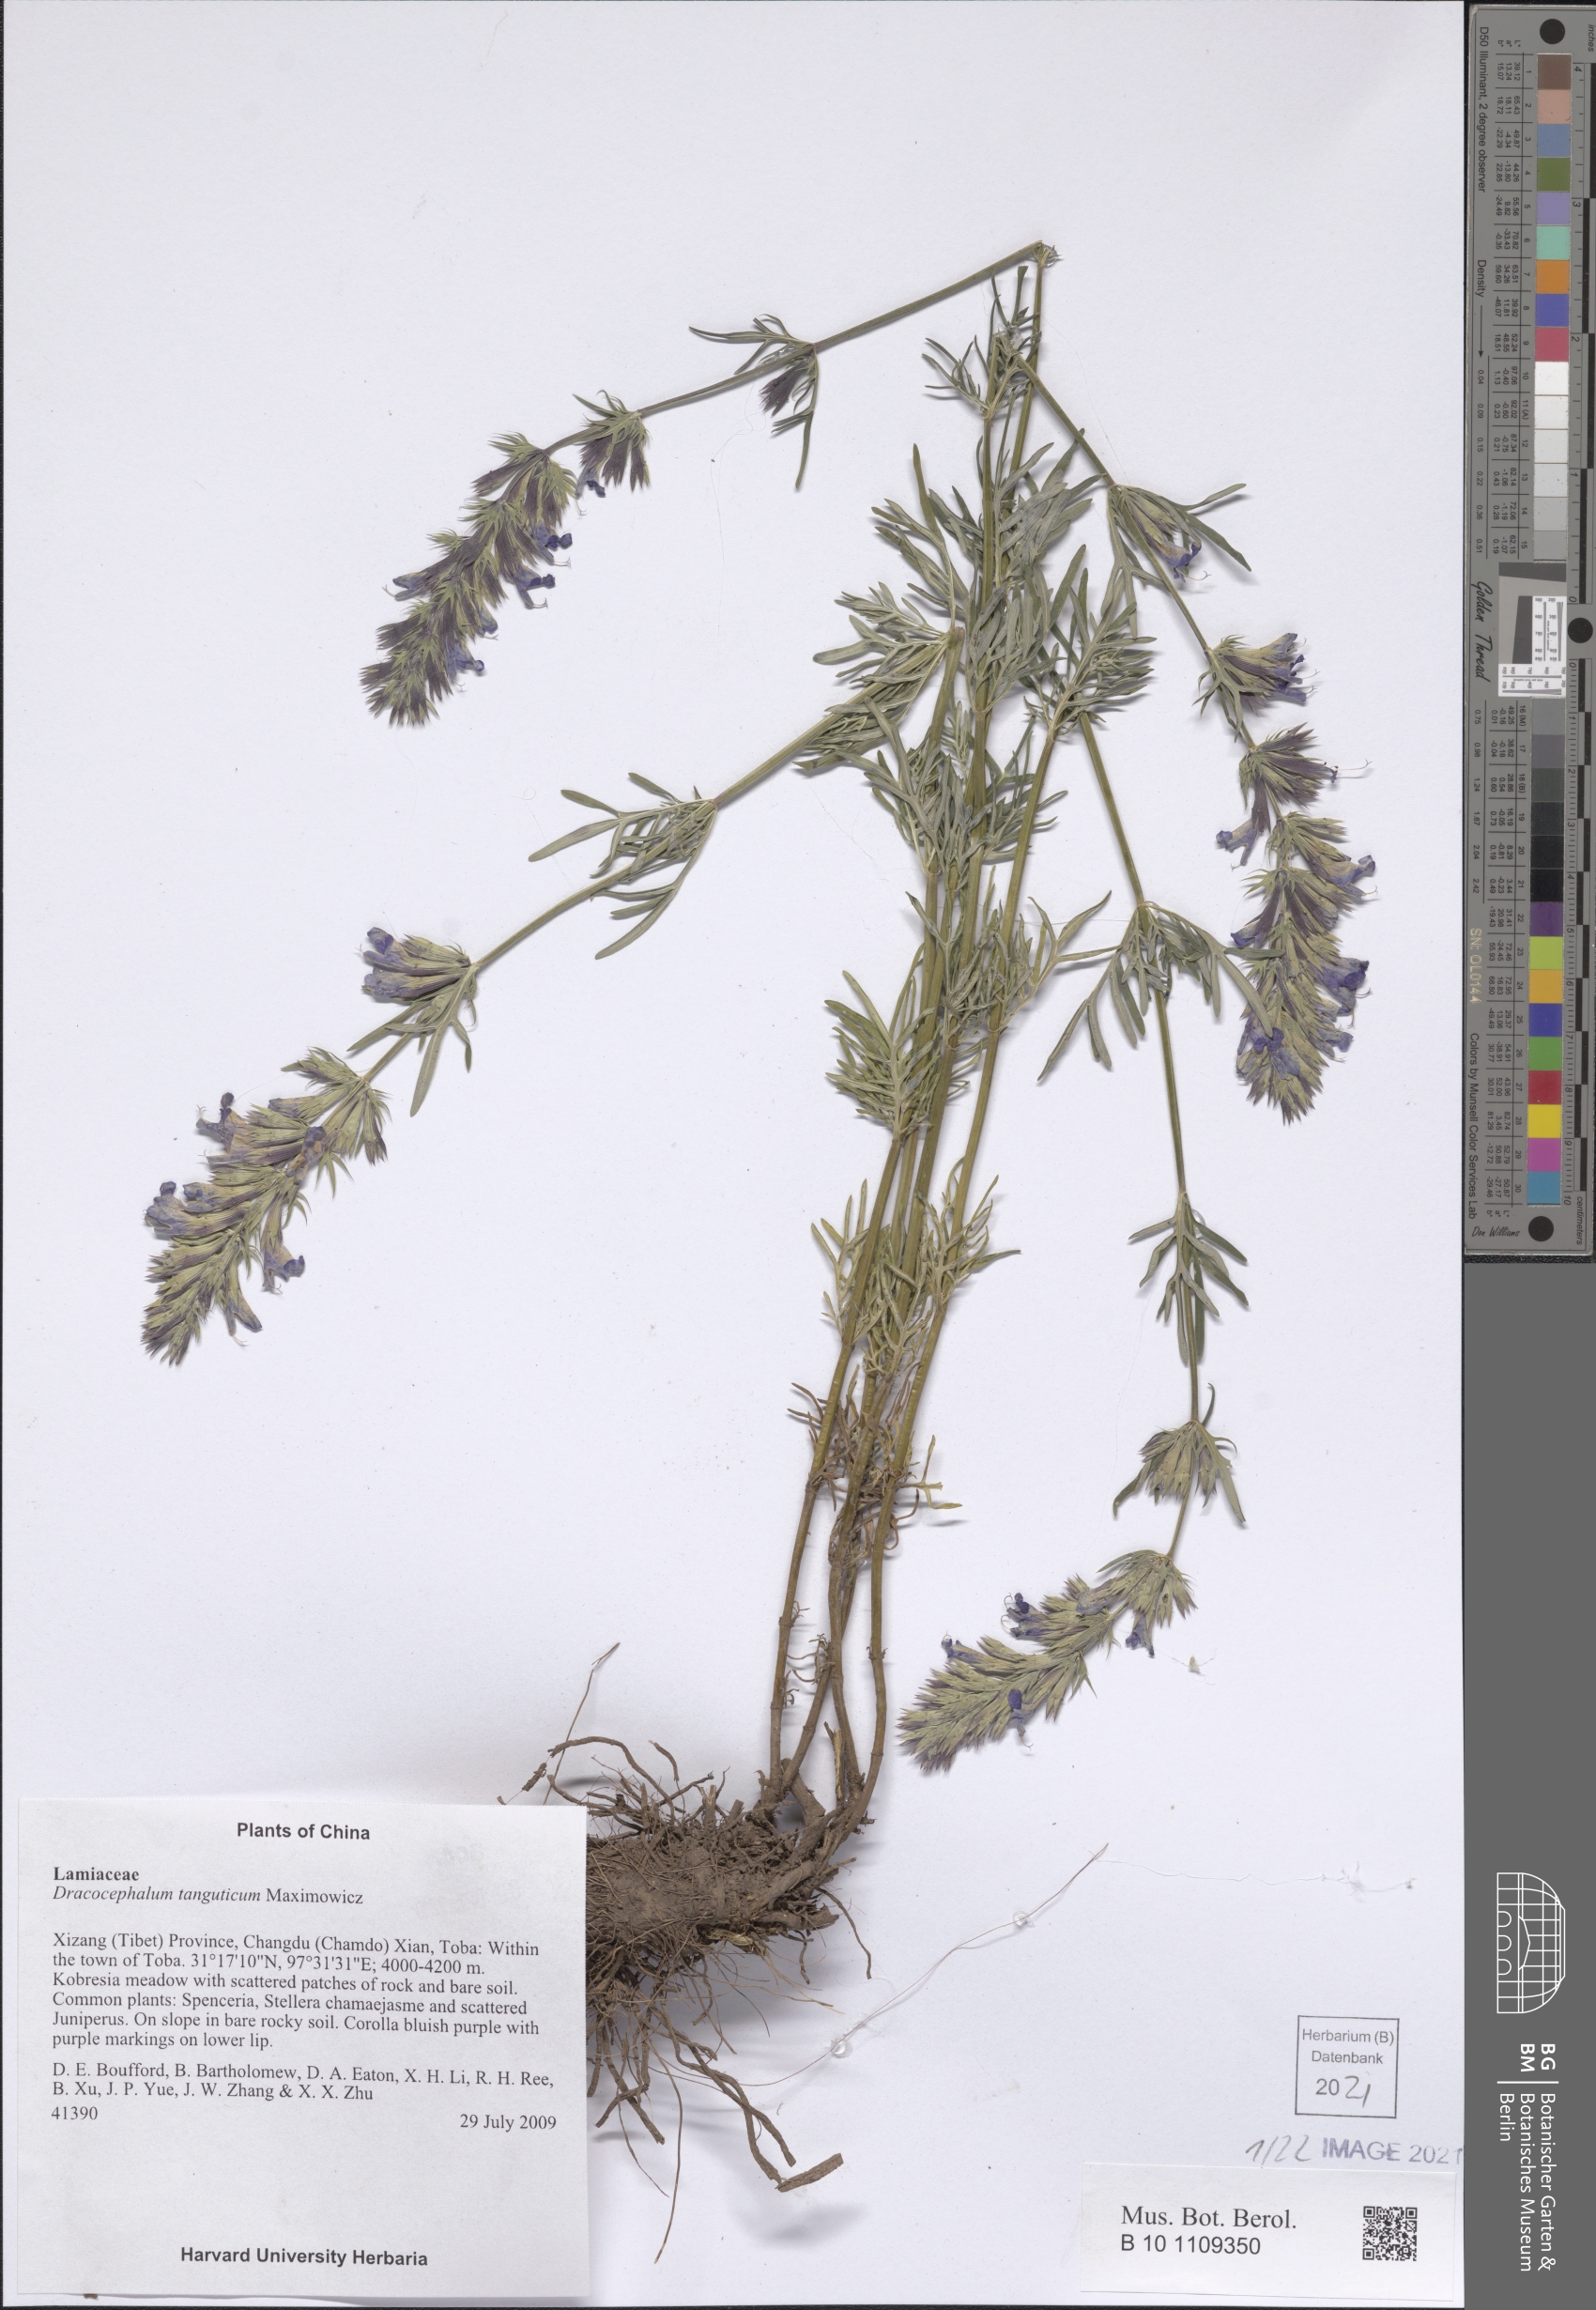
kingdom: Plantae
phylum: Tracheophyta
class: Magnoliopsida
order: Lamiales
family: Lamiaceae
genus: Dracocephalum
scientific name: Dracocephalum tanguticum
